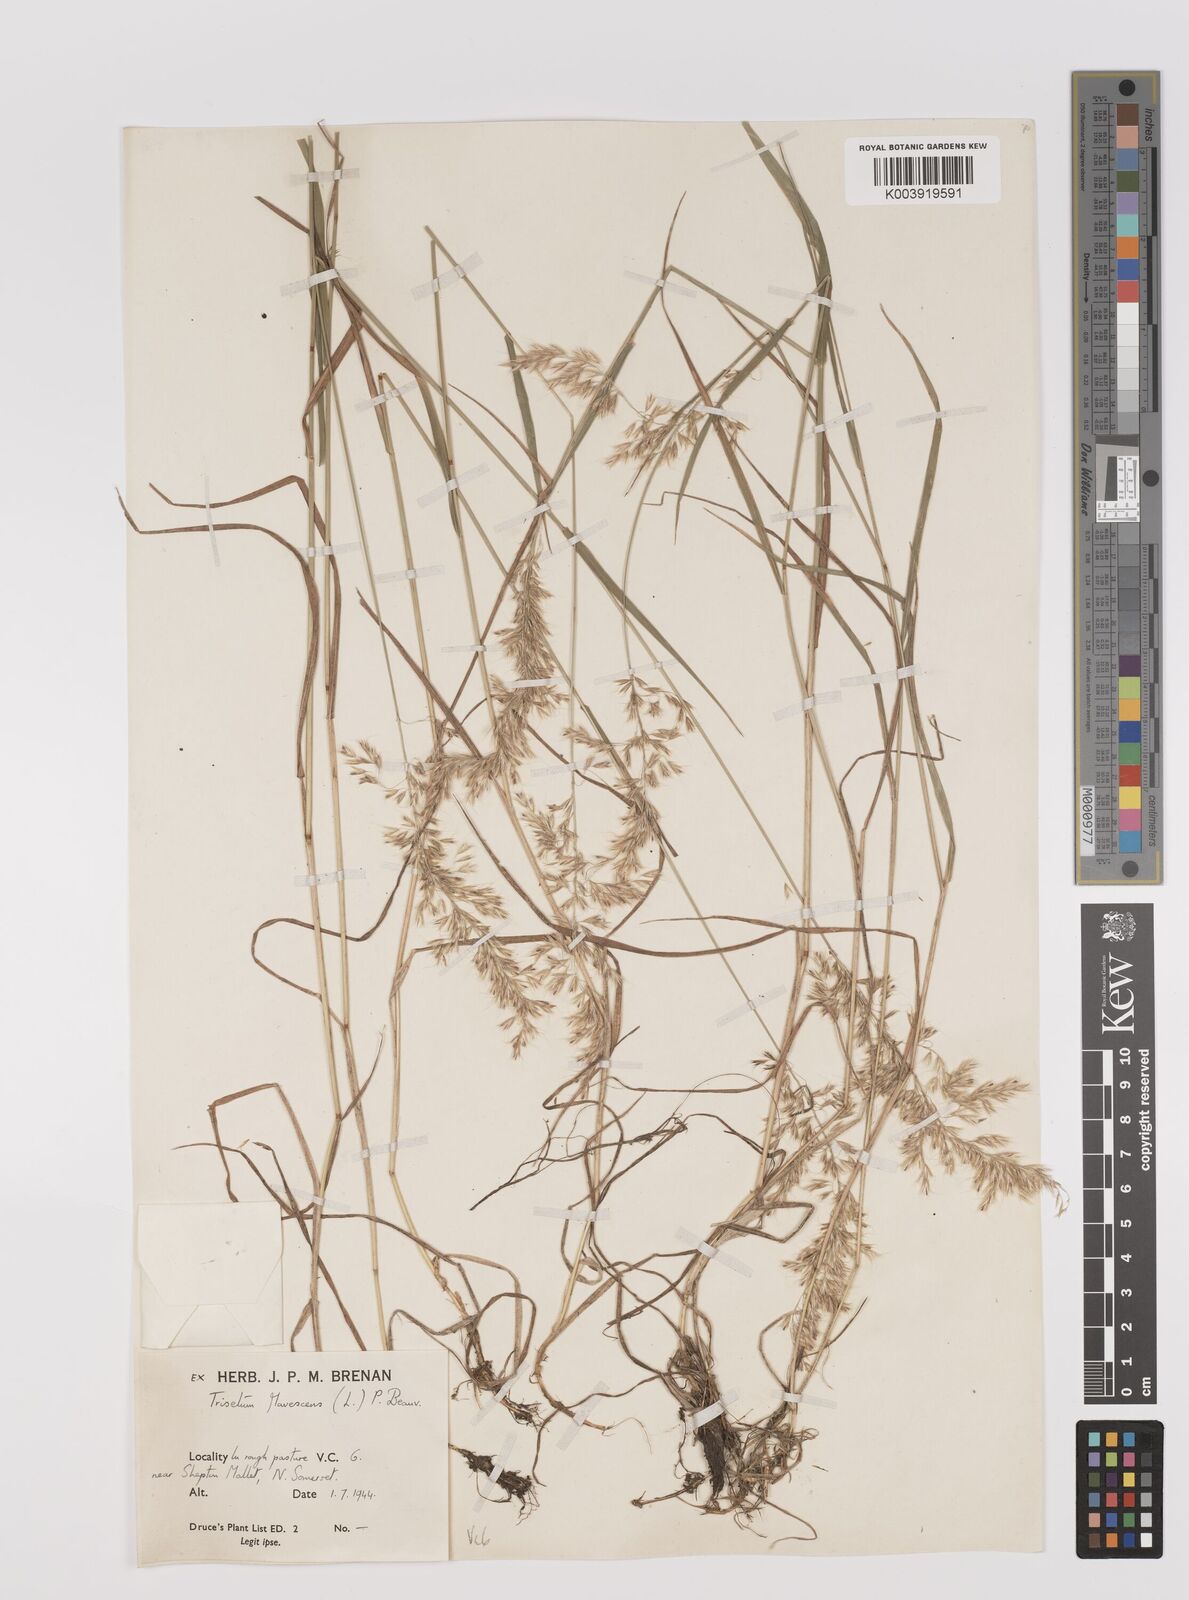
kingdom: Plantae
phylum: Tracheophyta
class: Liliopsida
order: Poales
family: Poaceae
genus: Trisetum
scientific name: Trisetum flavescens
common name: Yellow oat-grass
